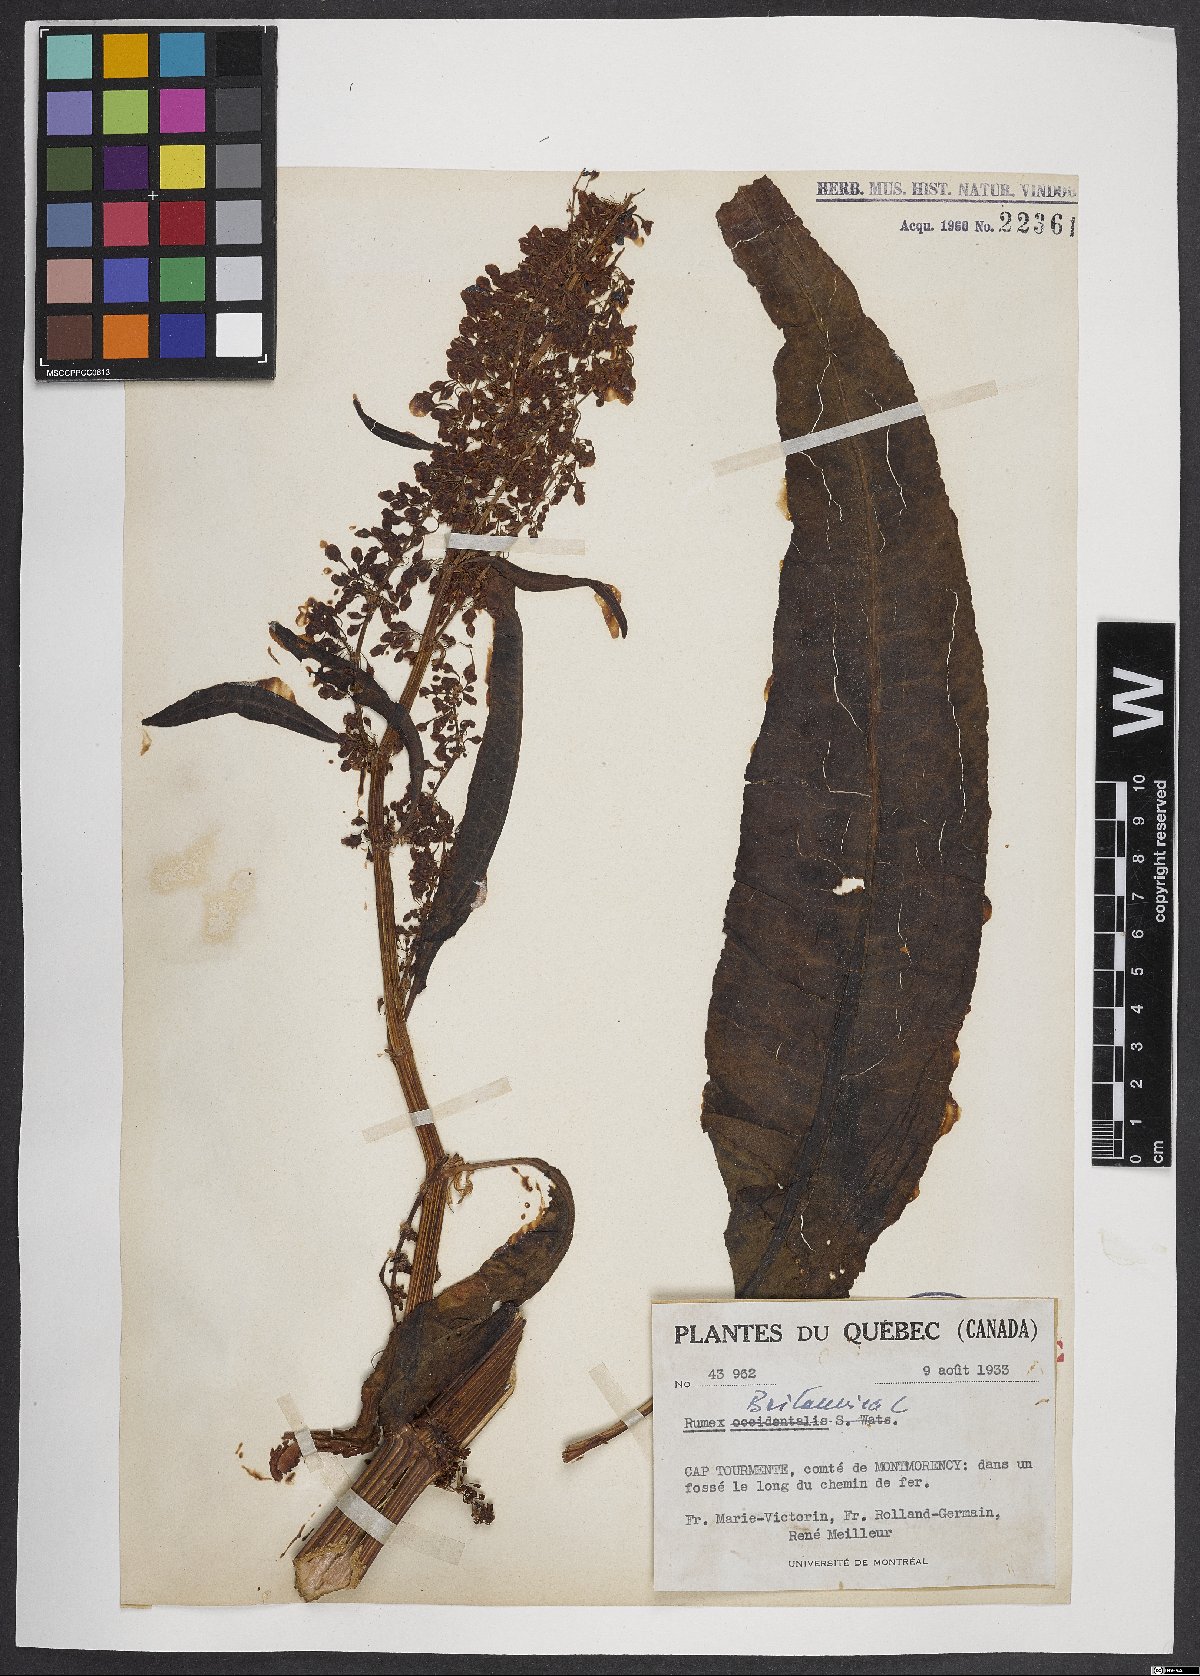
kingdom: Plantae
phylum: Tracheophyta
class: Magnoliopsida
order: Caryophyllales
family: Polygonaceae
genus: Rumex
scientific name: Rumex britannica
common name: British dock
